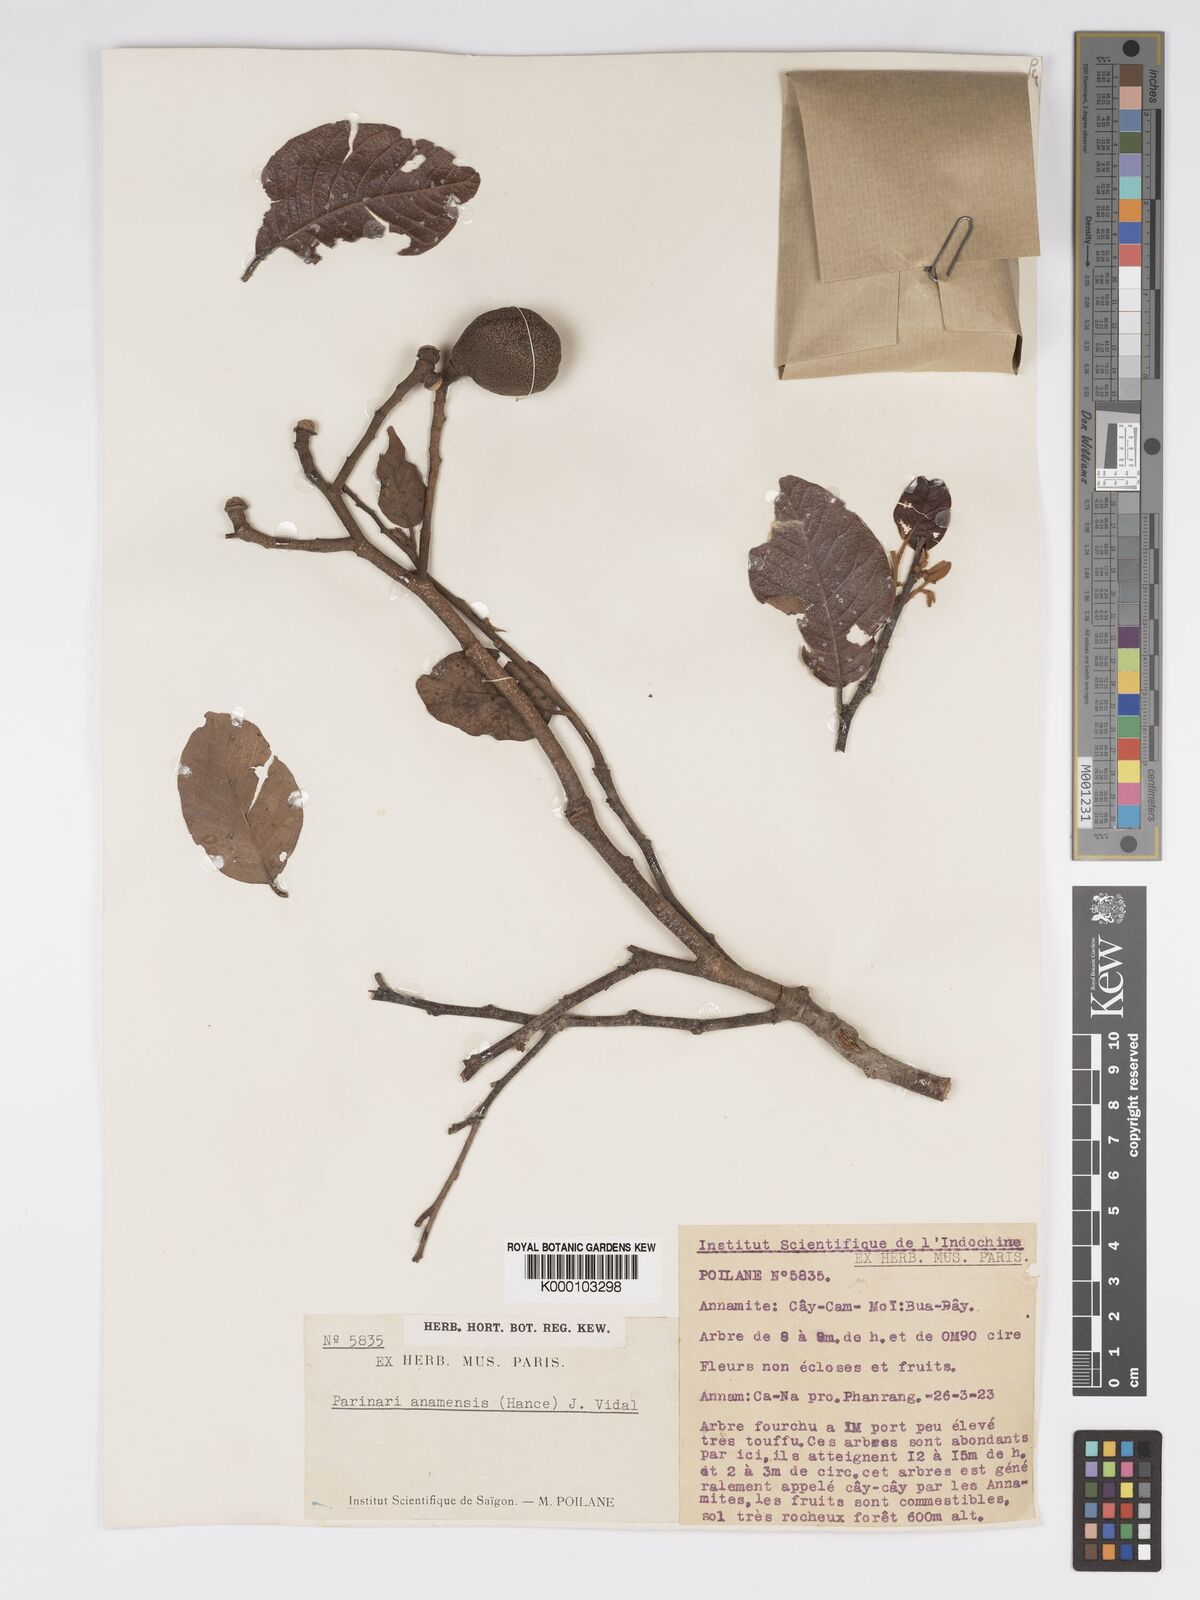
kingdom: Plantae
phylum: Tracheophyta
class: Magnoliopsida
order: Malpighiales
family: Chrysobalanaceae
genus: Parinari
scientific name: Parinari anamensis
